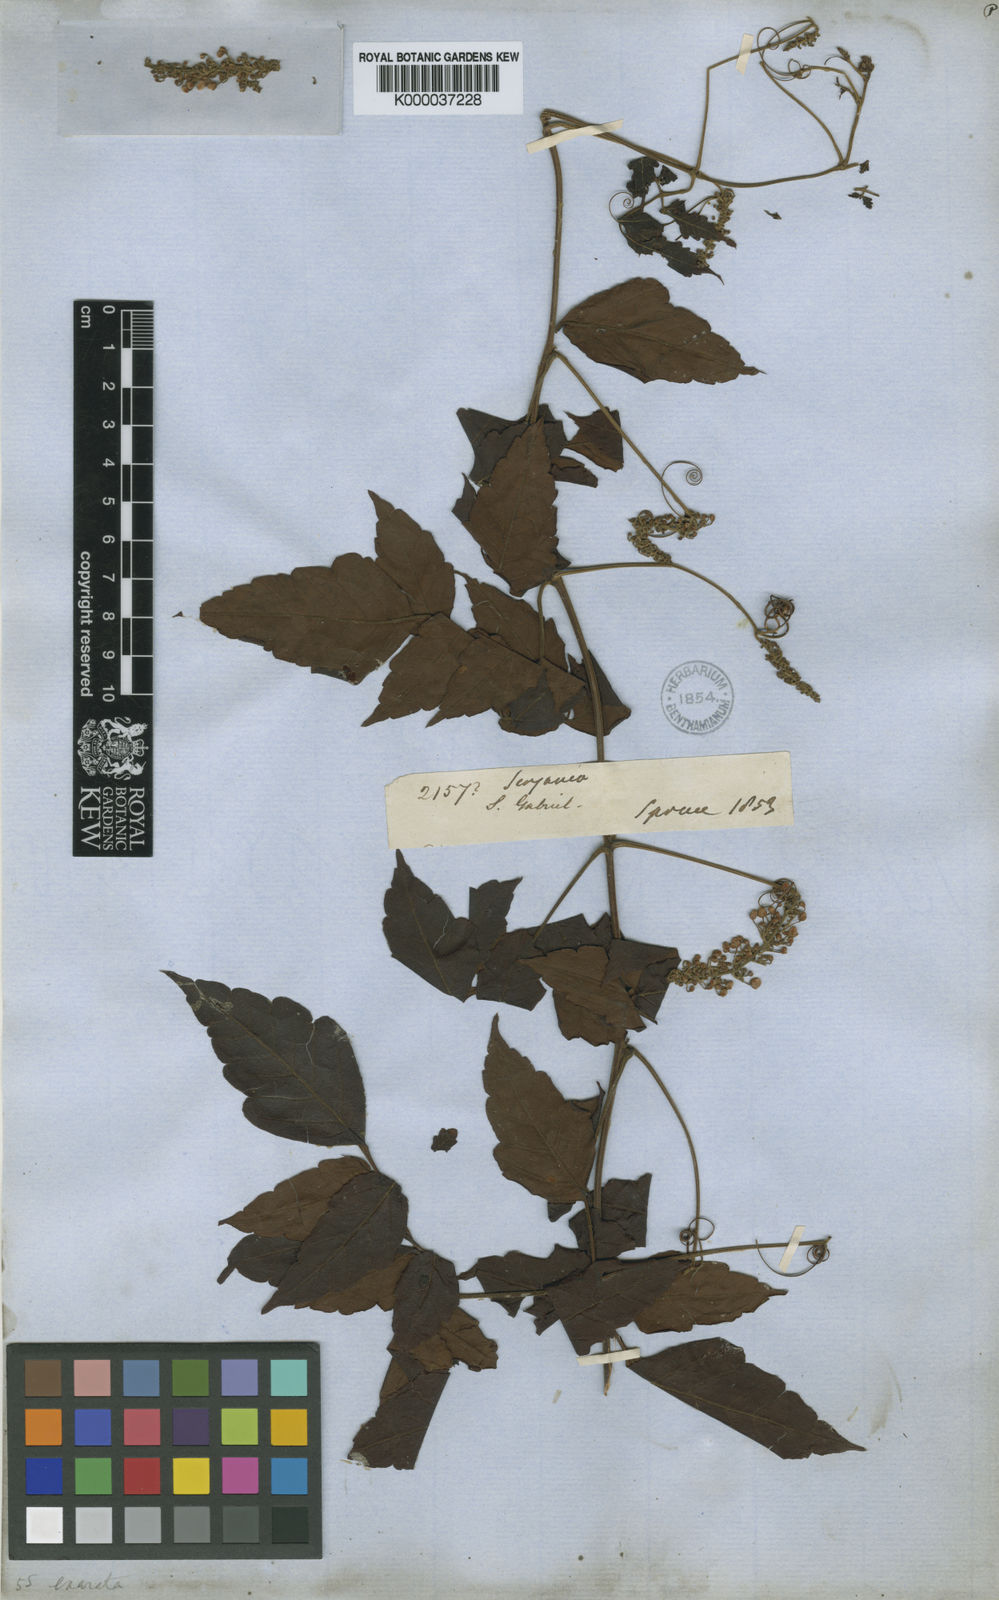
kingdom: Plantae
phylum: Tracheophyta
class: Magnoliopsida
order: Sapindales
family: Sapindaceae
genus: Serjania
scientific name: Serjania membranacea
